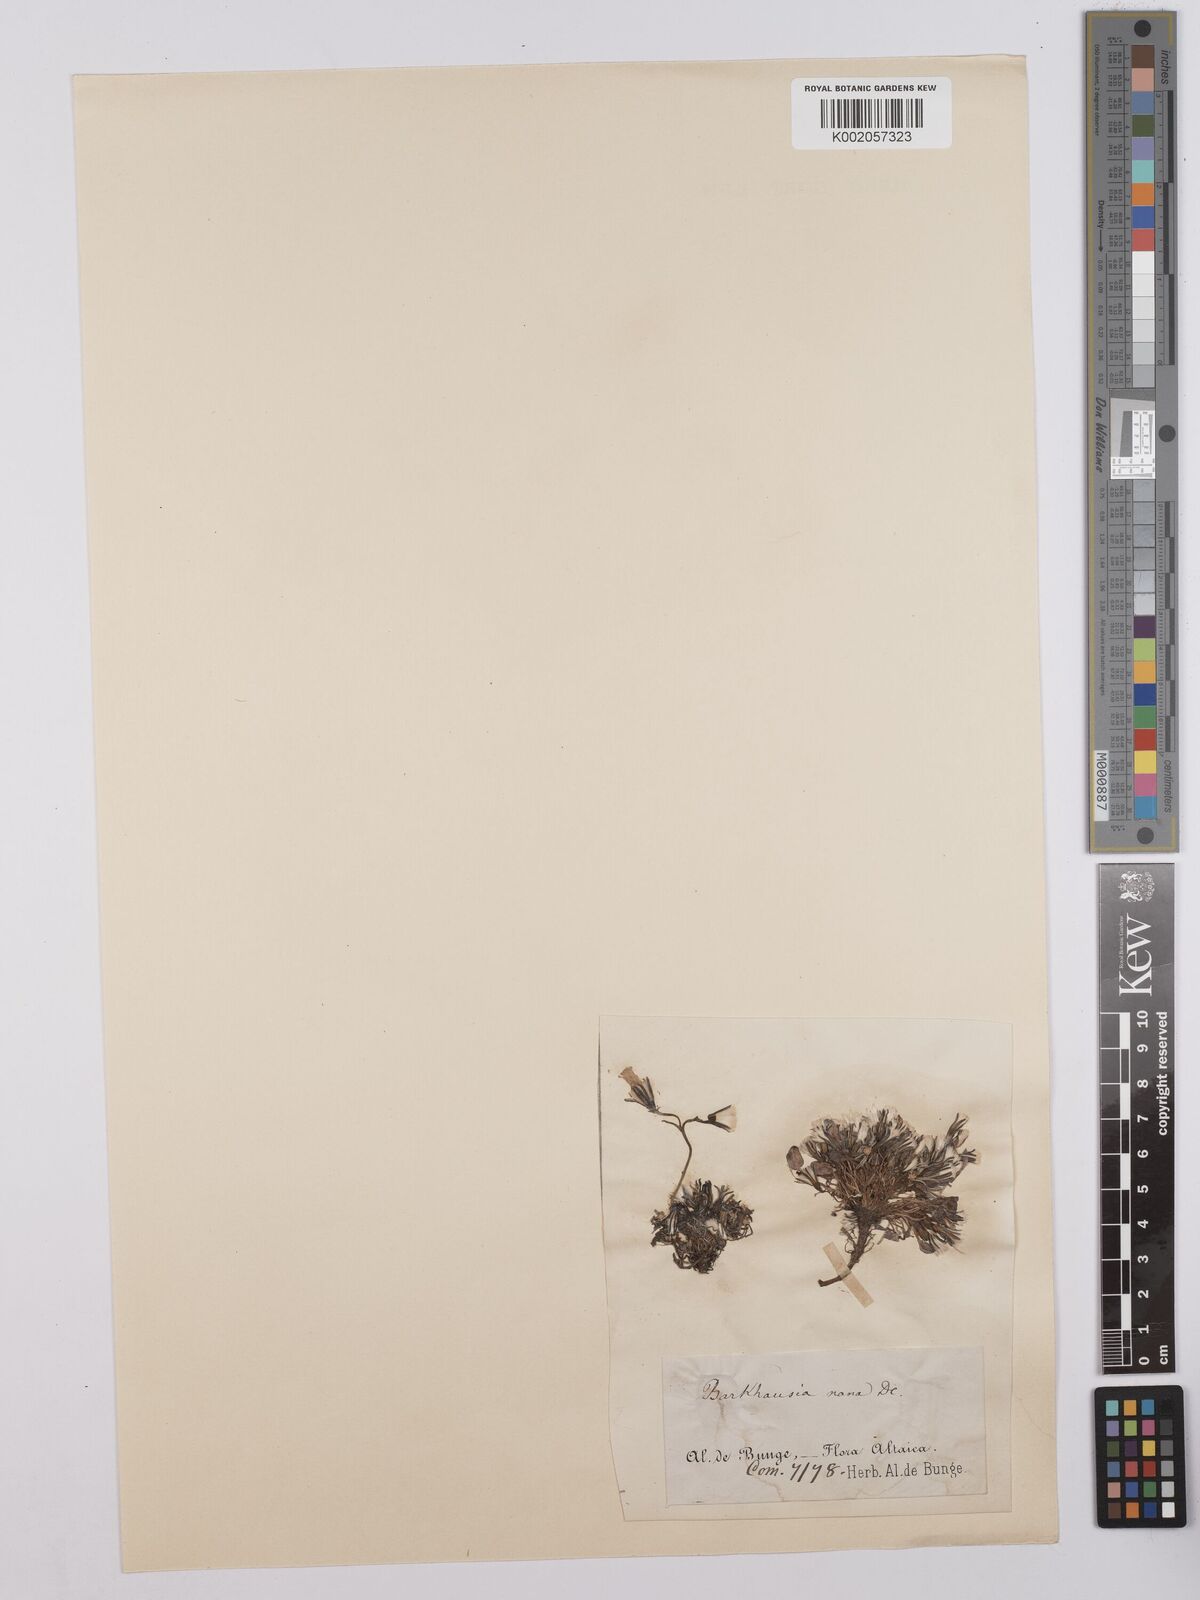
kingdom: Plantae
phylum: Tracheophyta
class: Magnoliopsida
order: Asterales
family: Asteraceae
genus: Askellia
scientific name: Askellia pygmaea
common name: Dwarf alpine hawksbeard
